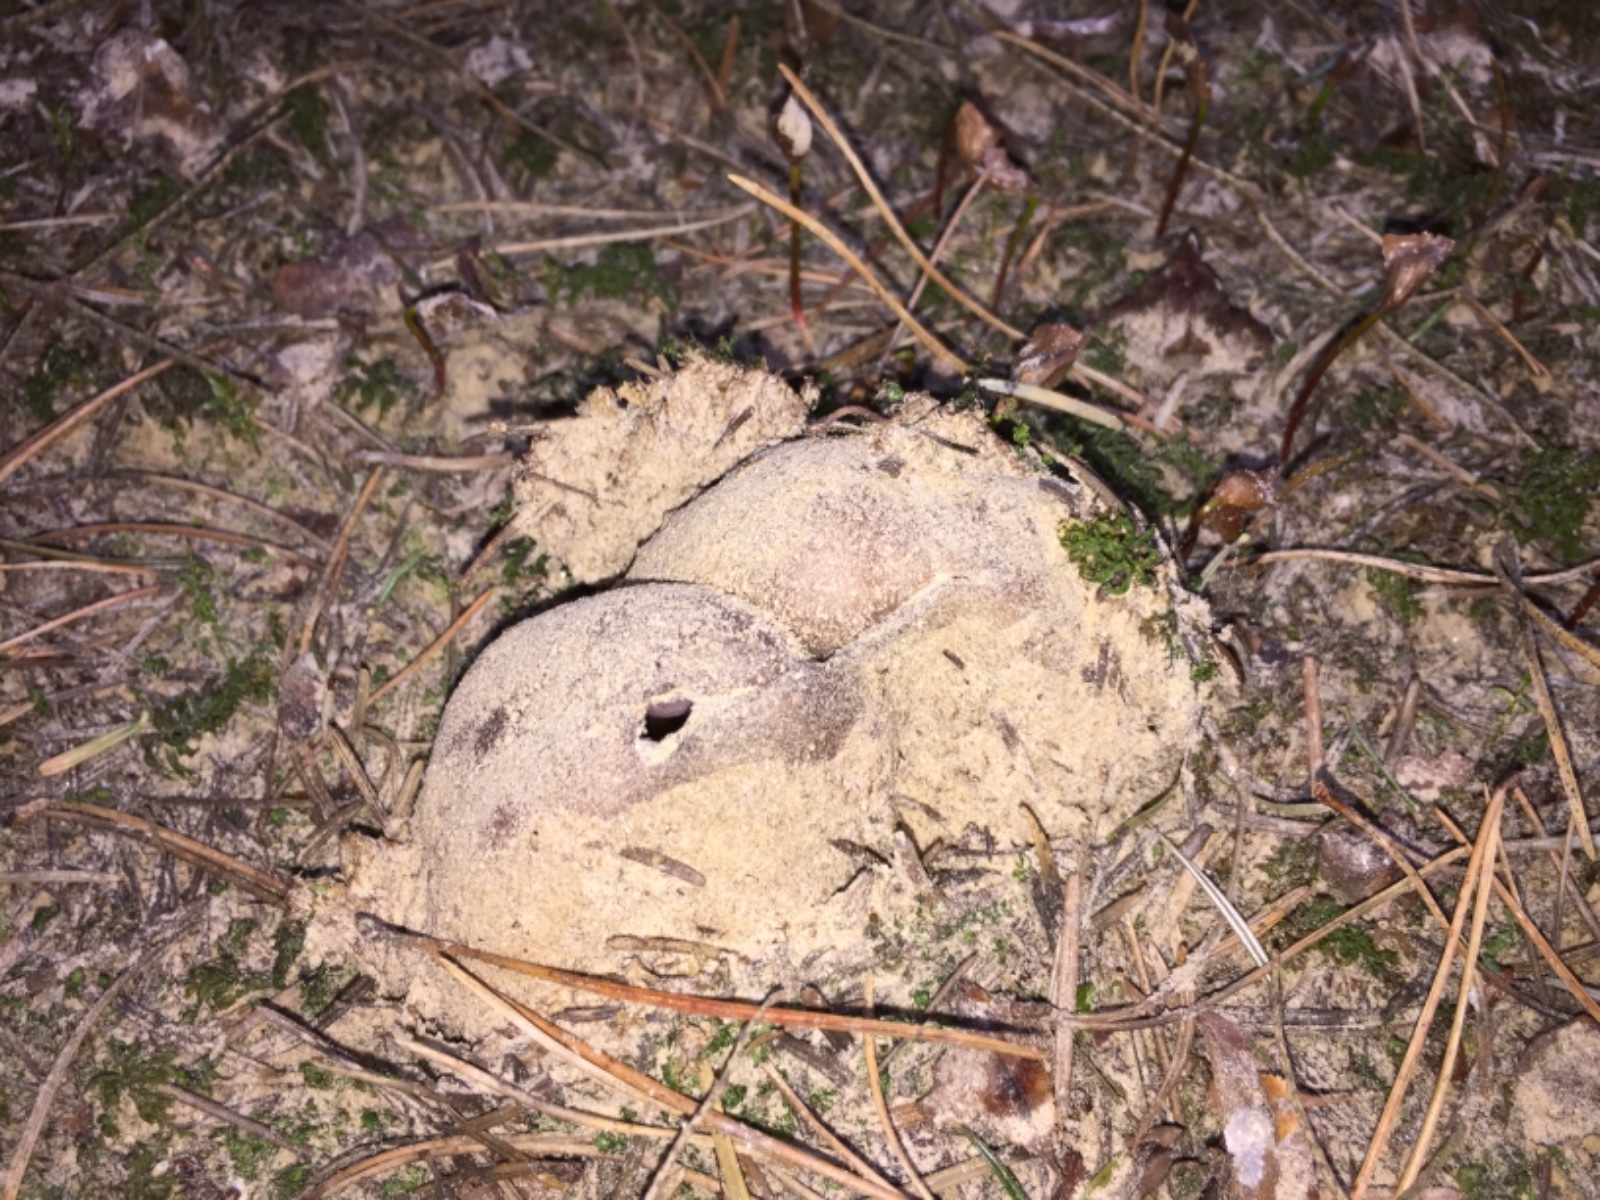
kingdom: Fungi
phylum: Ascomycota
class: Pezizomycetes
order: Pezizales
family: Pezizaceae
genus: Sarcosphaera
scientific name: Sarcosphaera coronaria
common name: stjernebæger
